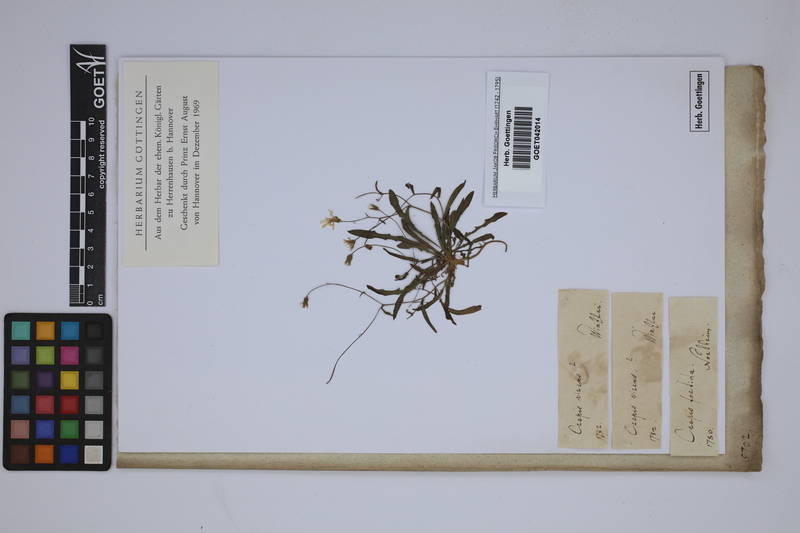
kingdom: Plantae
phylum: Tracheophyta
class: Magnoliopsida
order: Asterales
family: Asteraceae
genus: Crepis
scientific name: Crepis capillaris
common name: Smooth hawksbeard
